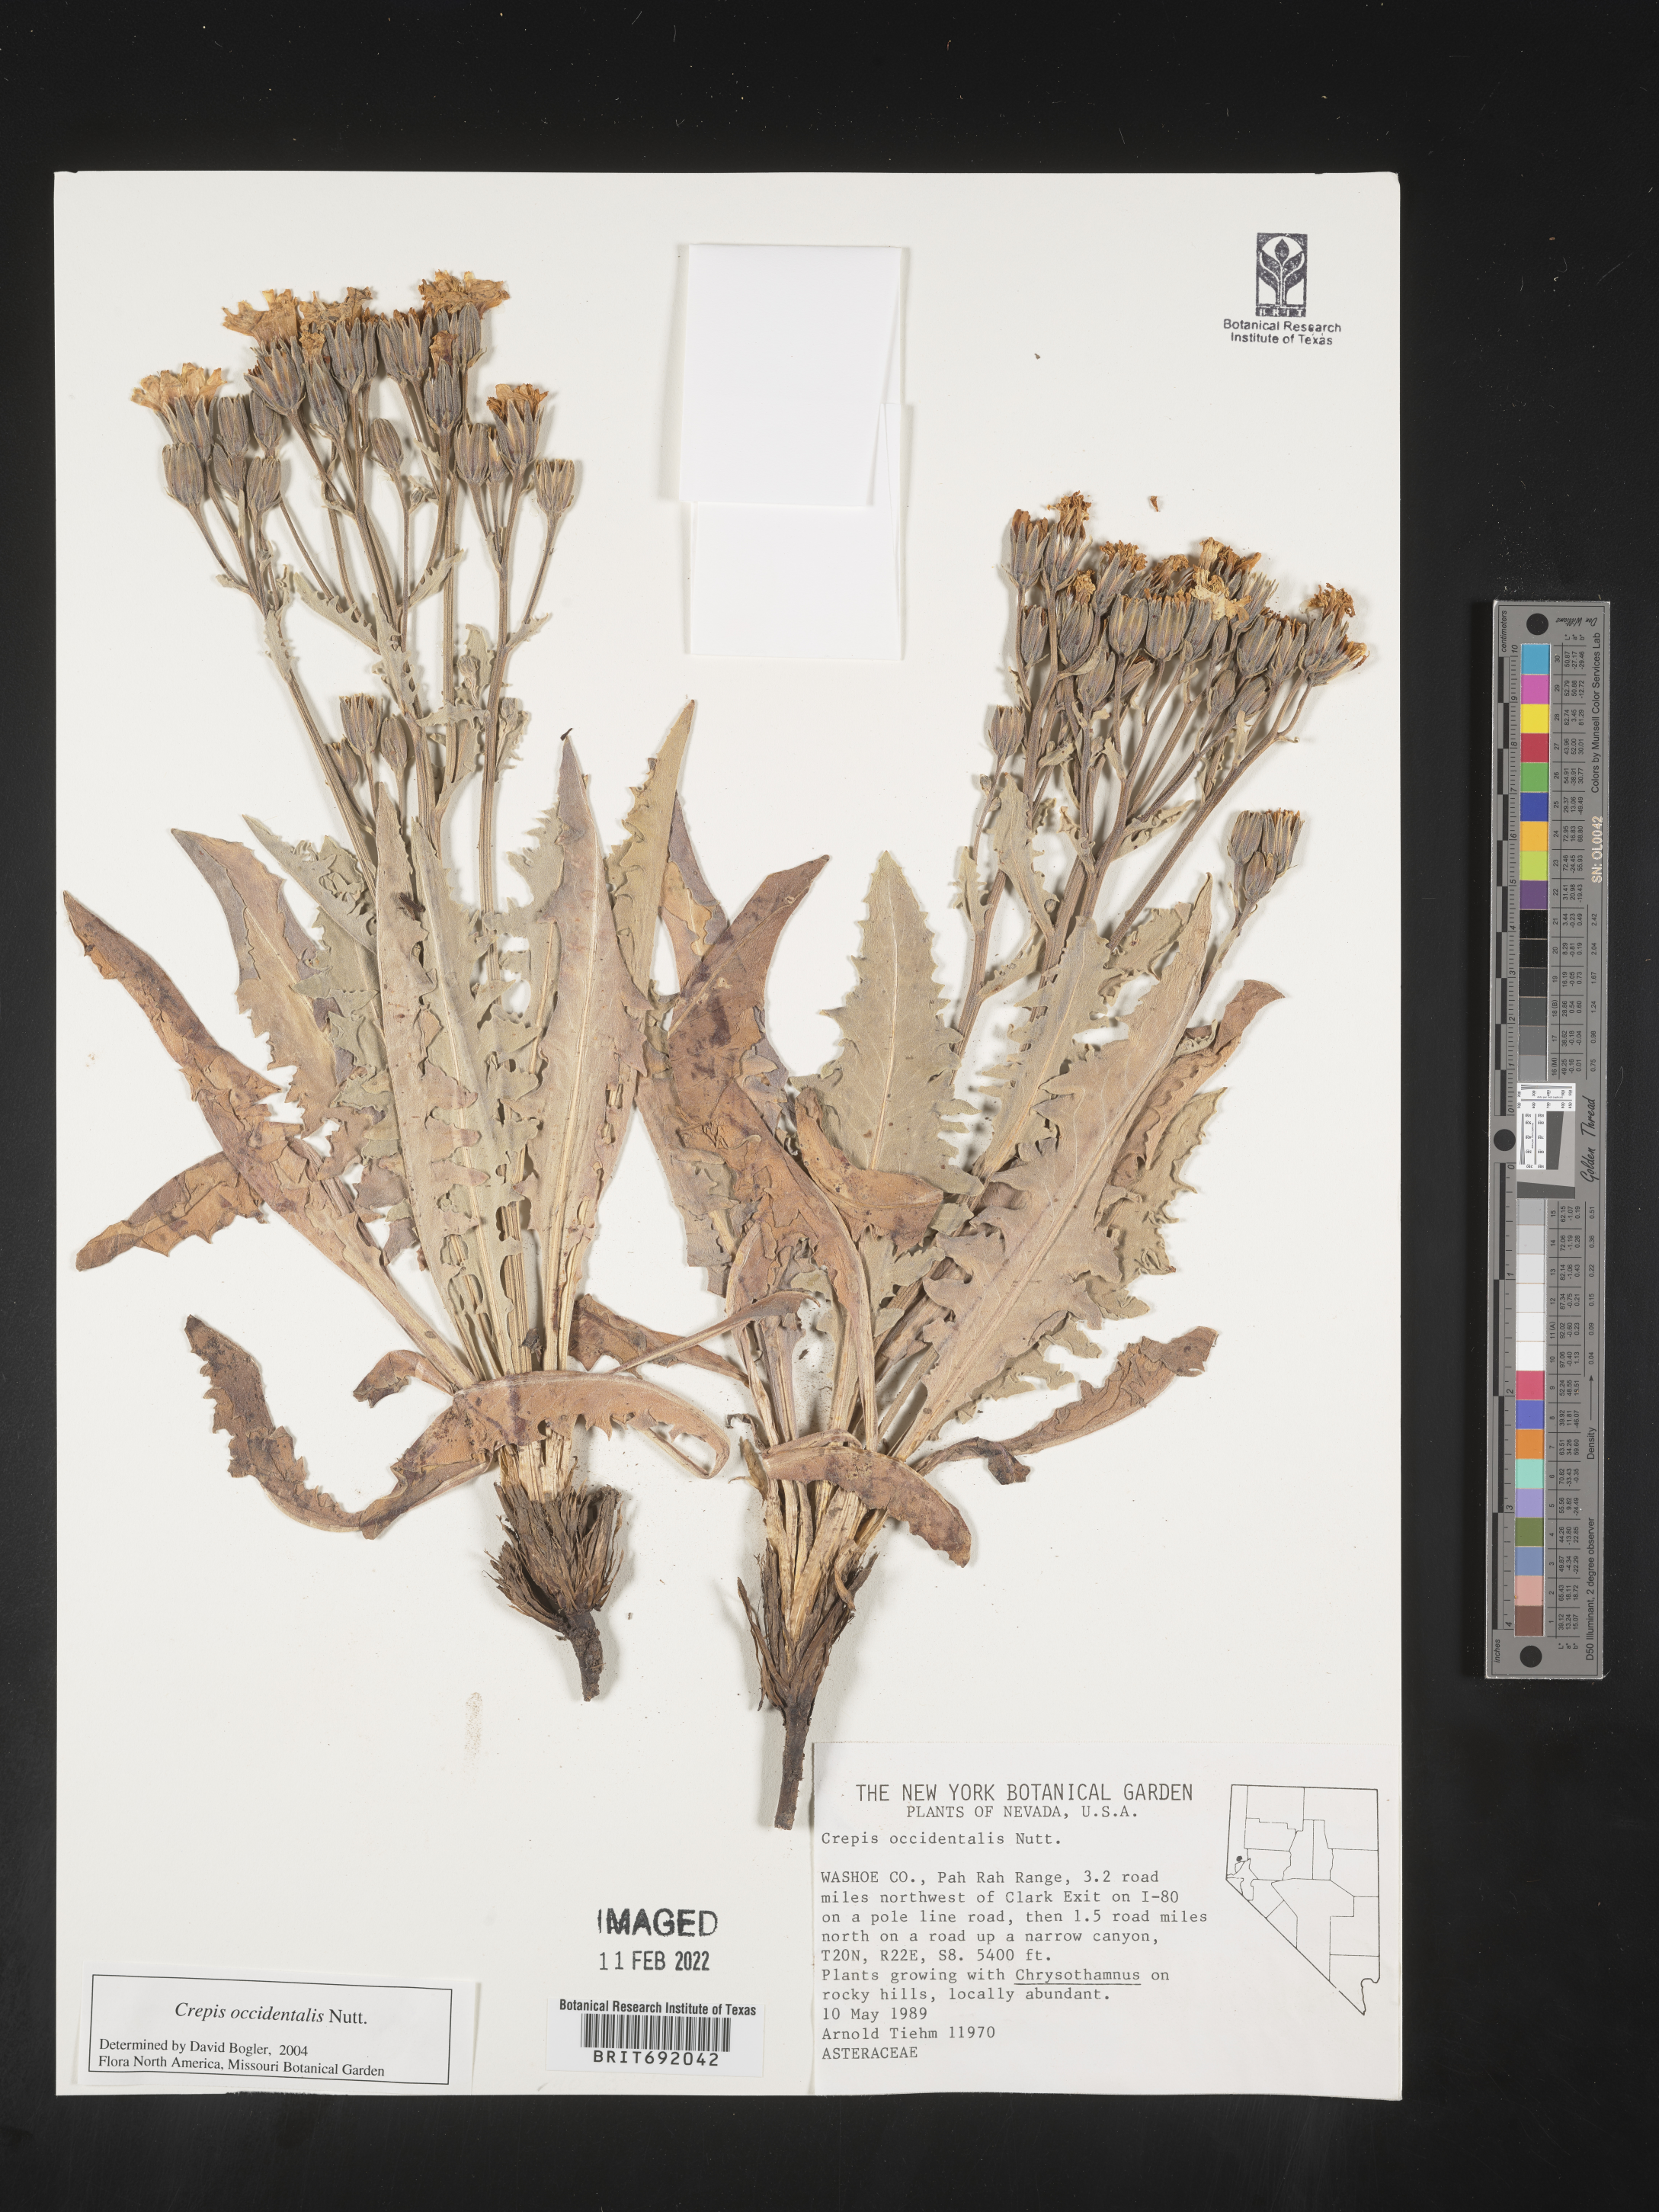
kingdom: Plantae
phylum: Tracheophyta
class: Magnoliopsida
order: Asterales
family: Asteraceae
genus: Crepis
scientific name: Crepis occidentalis
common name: Gray hawk's-beard
